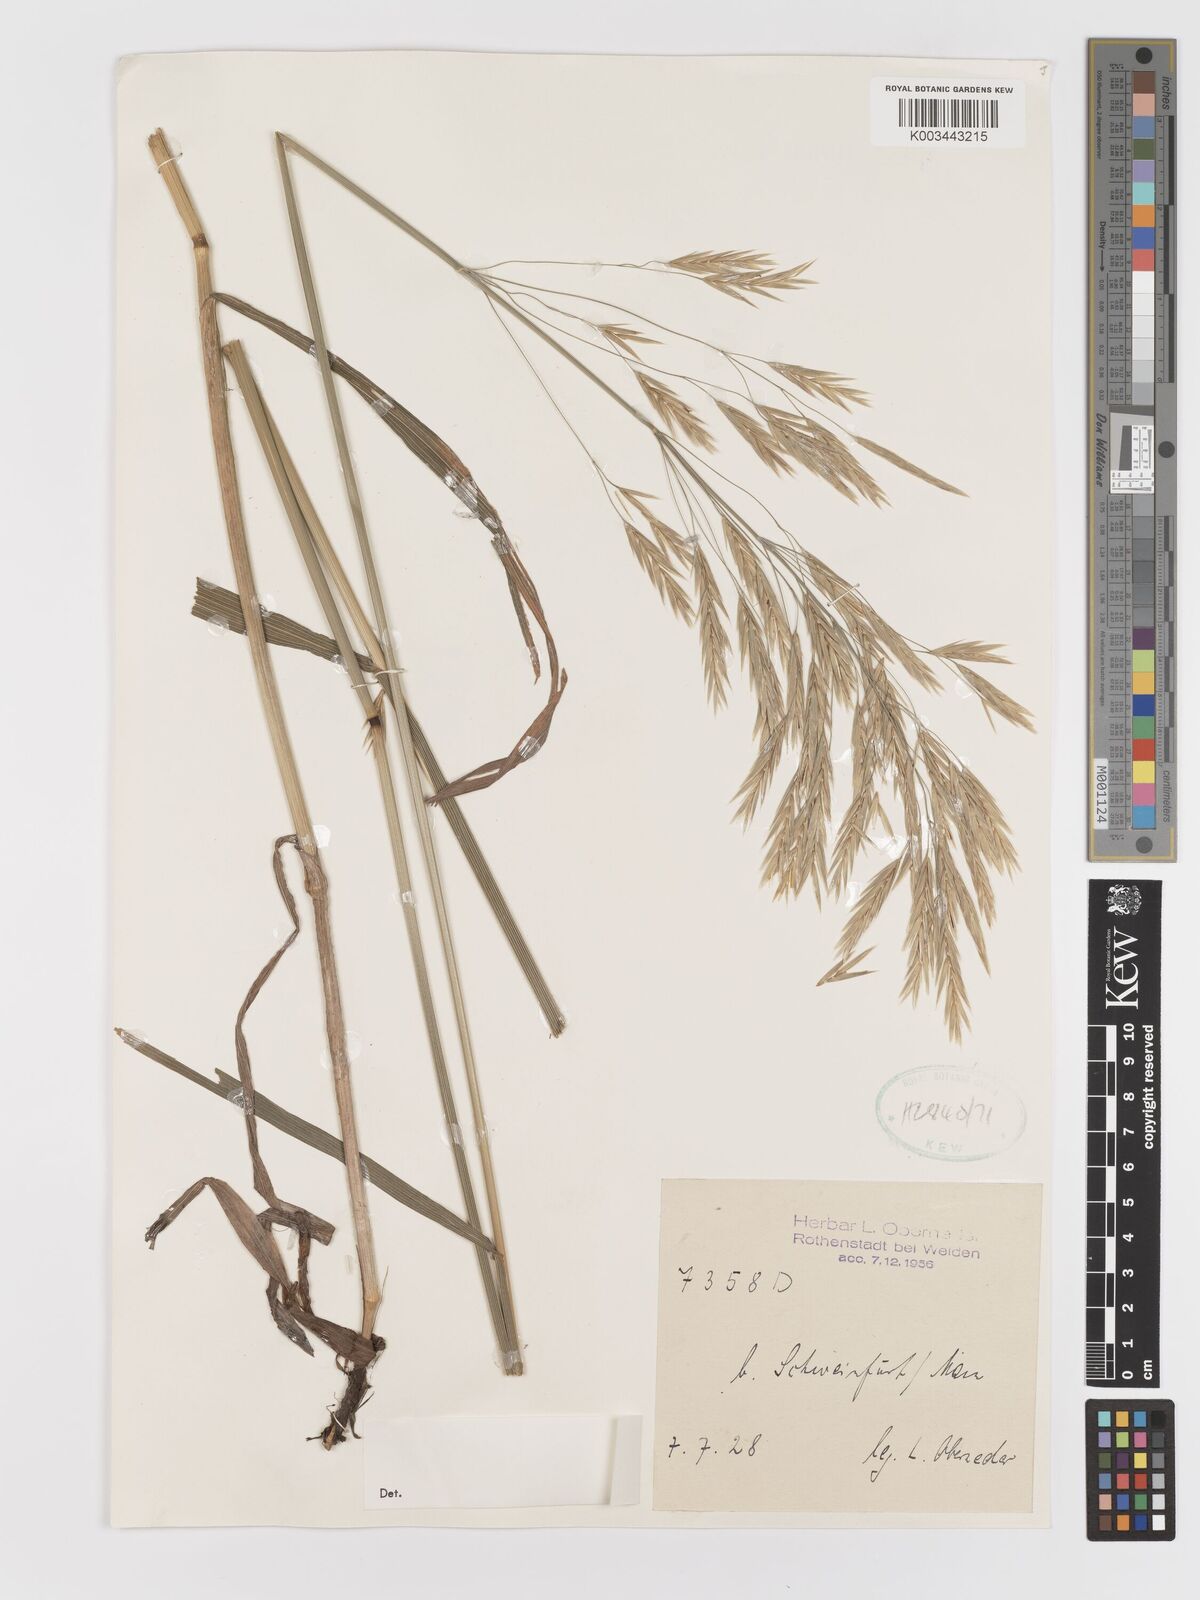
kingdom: Plantae
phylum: Tracheophyta
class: Liliopsida
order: Poales
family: Poaceae
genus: Bromus
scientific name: Bromus
